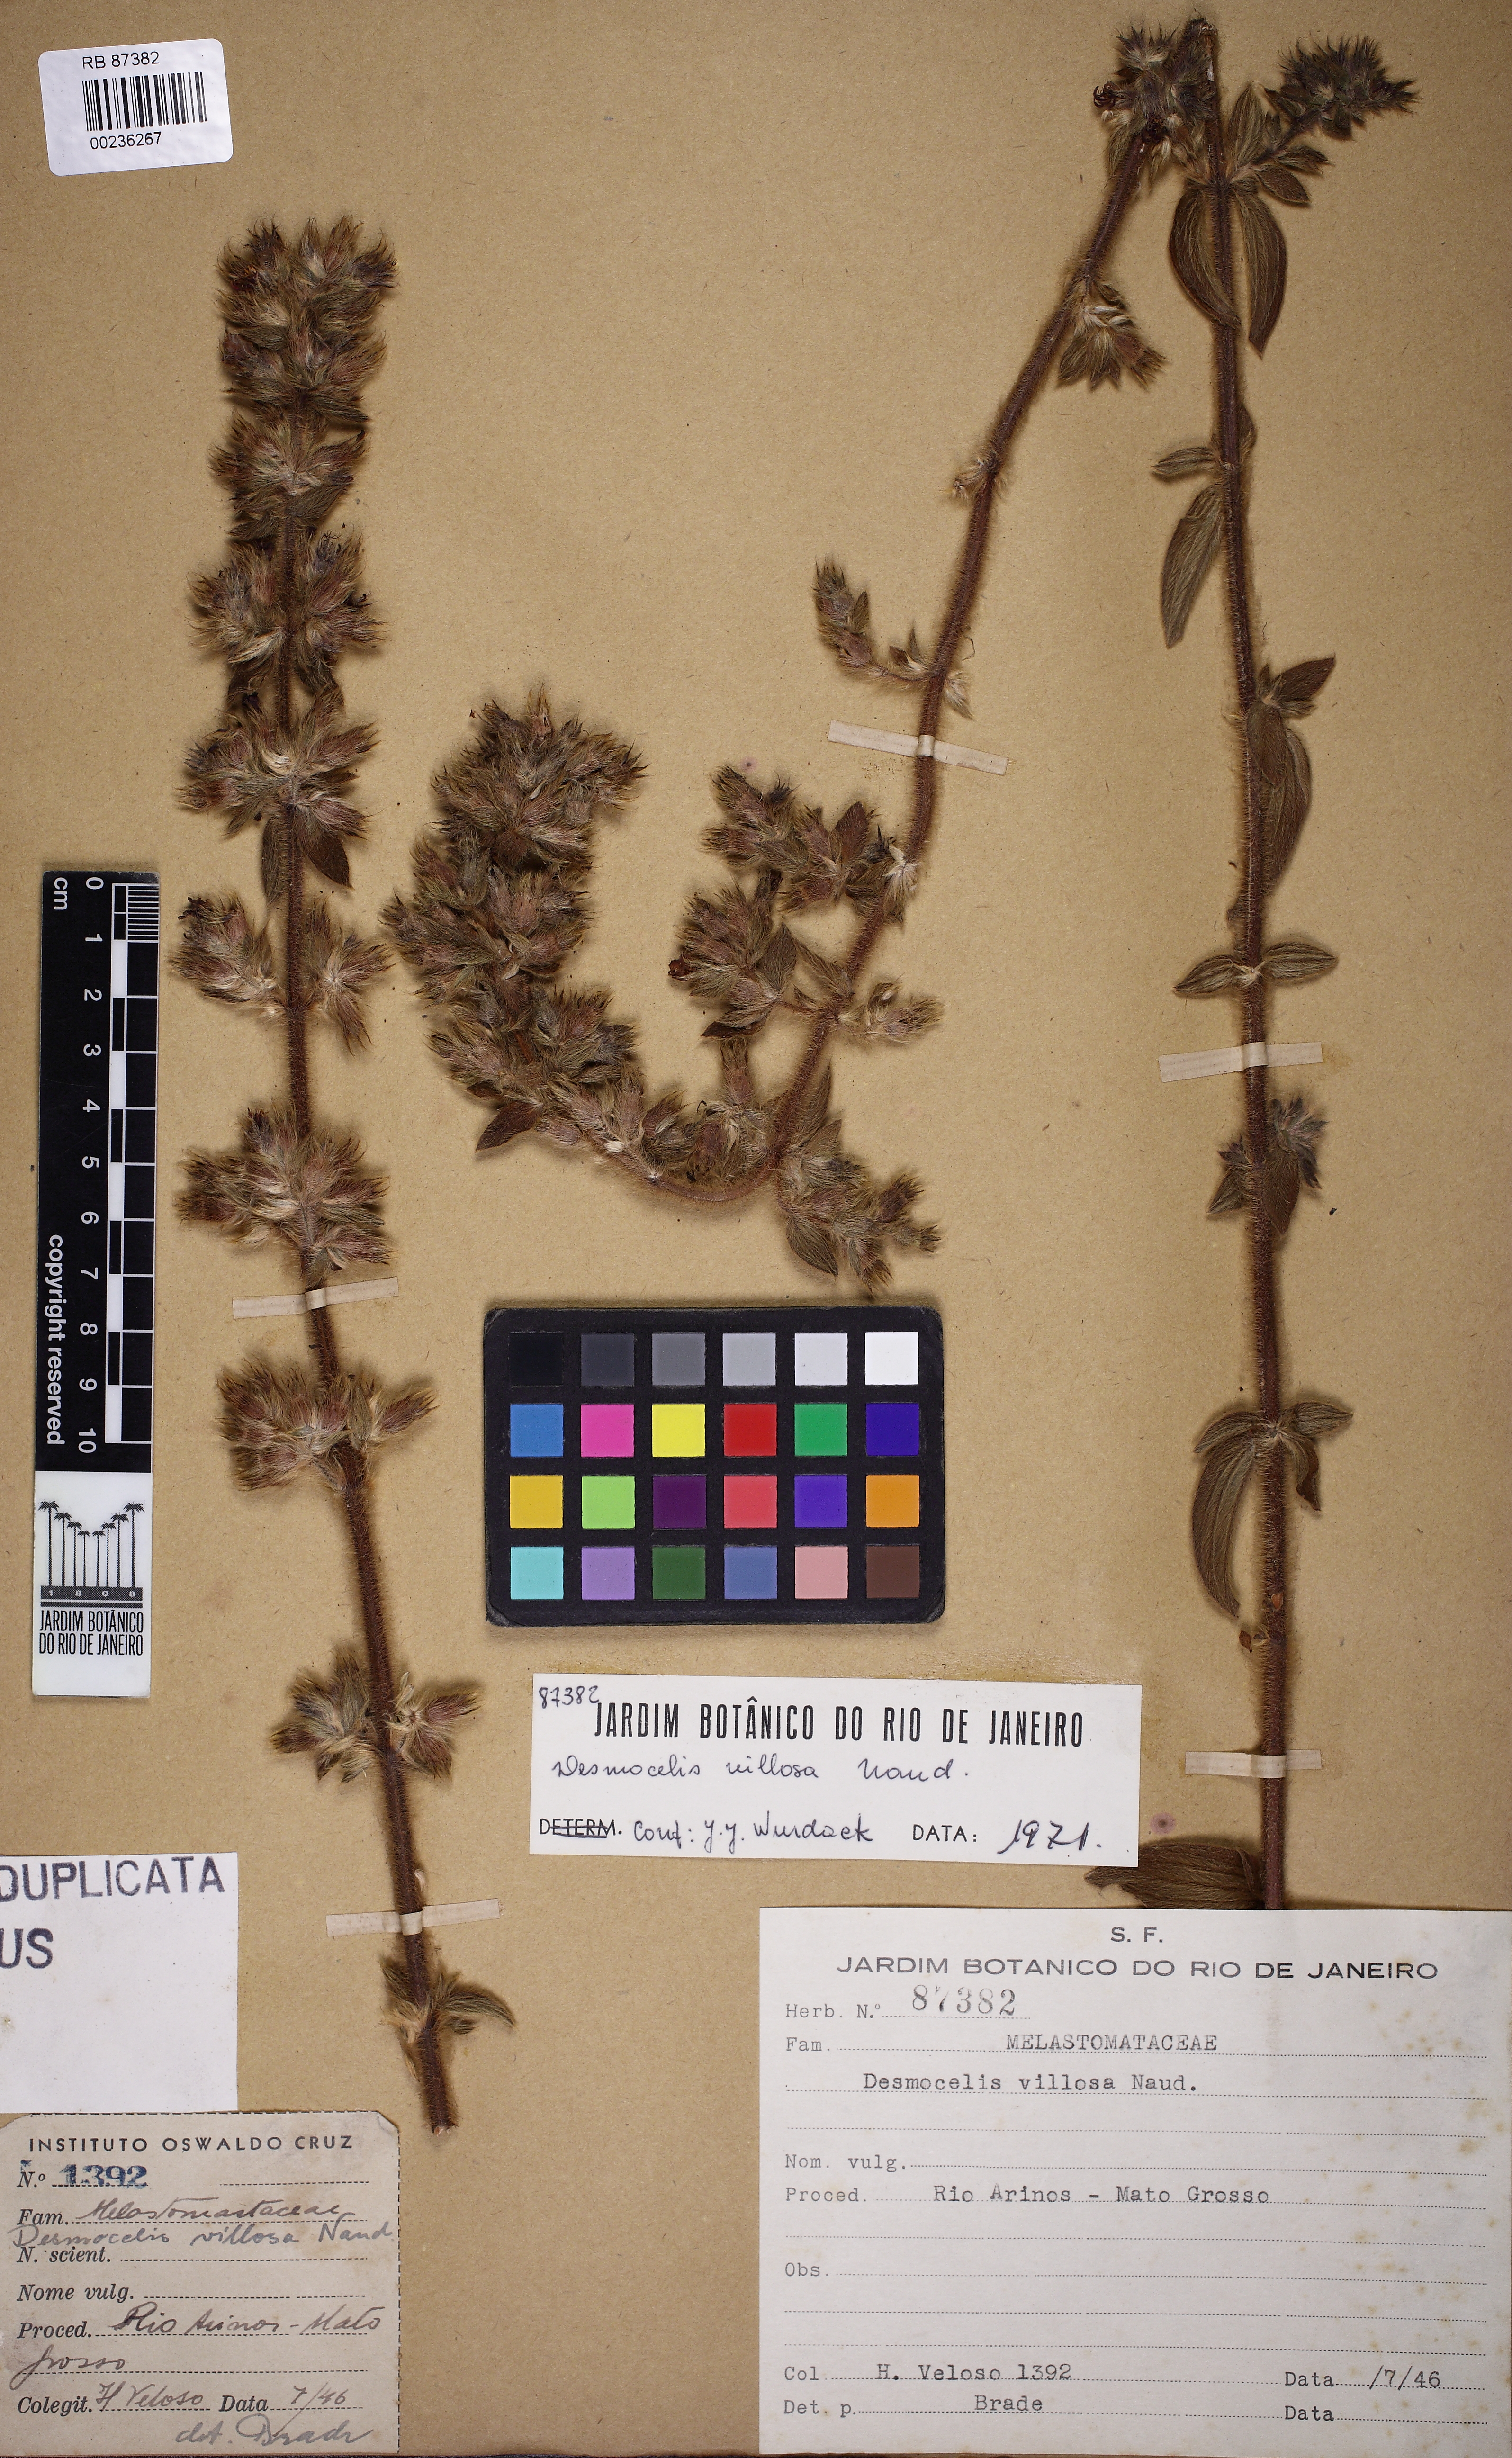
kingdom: Plantae
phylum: Tracheophyta
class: Magnoliopsida
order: Myrtales
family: Melastomataceae
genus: Desmoscelis
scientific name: Desmoscelis villosa
